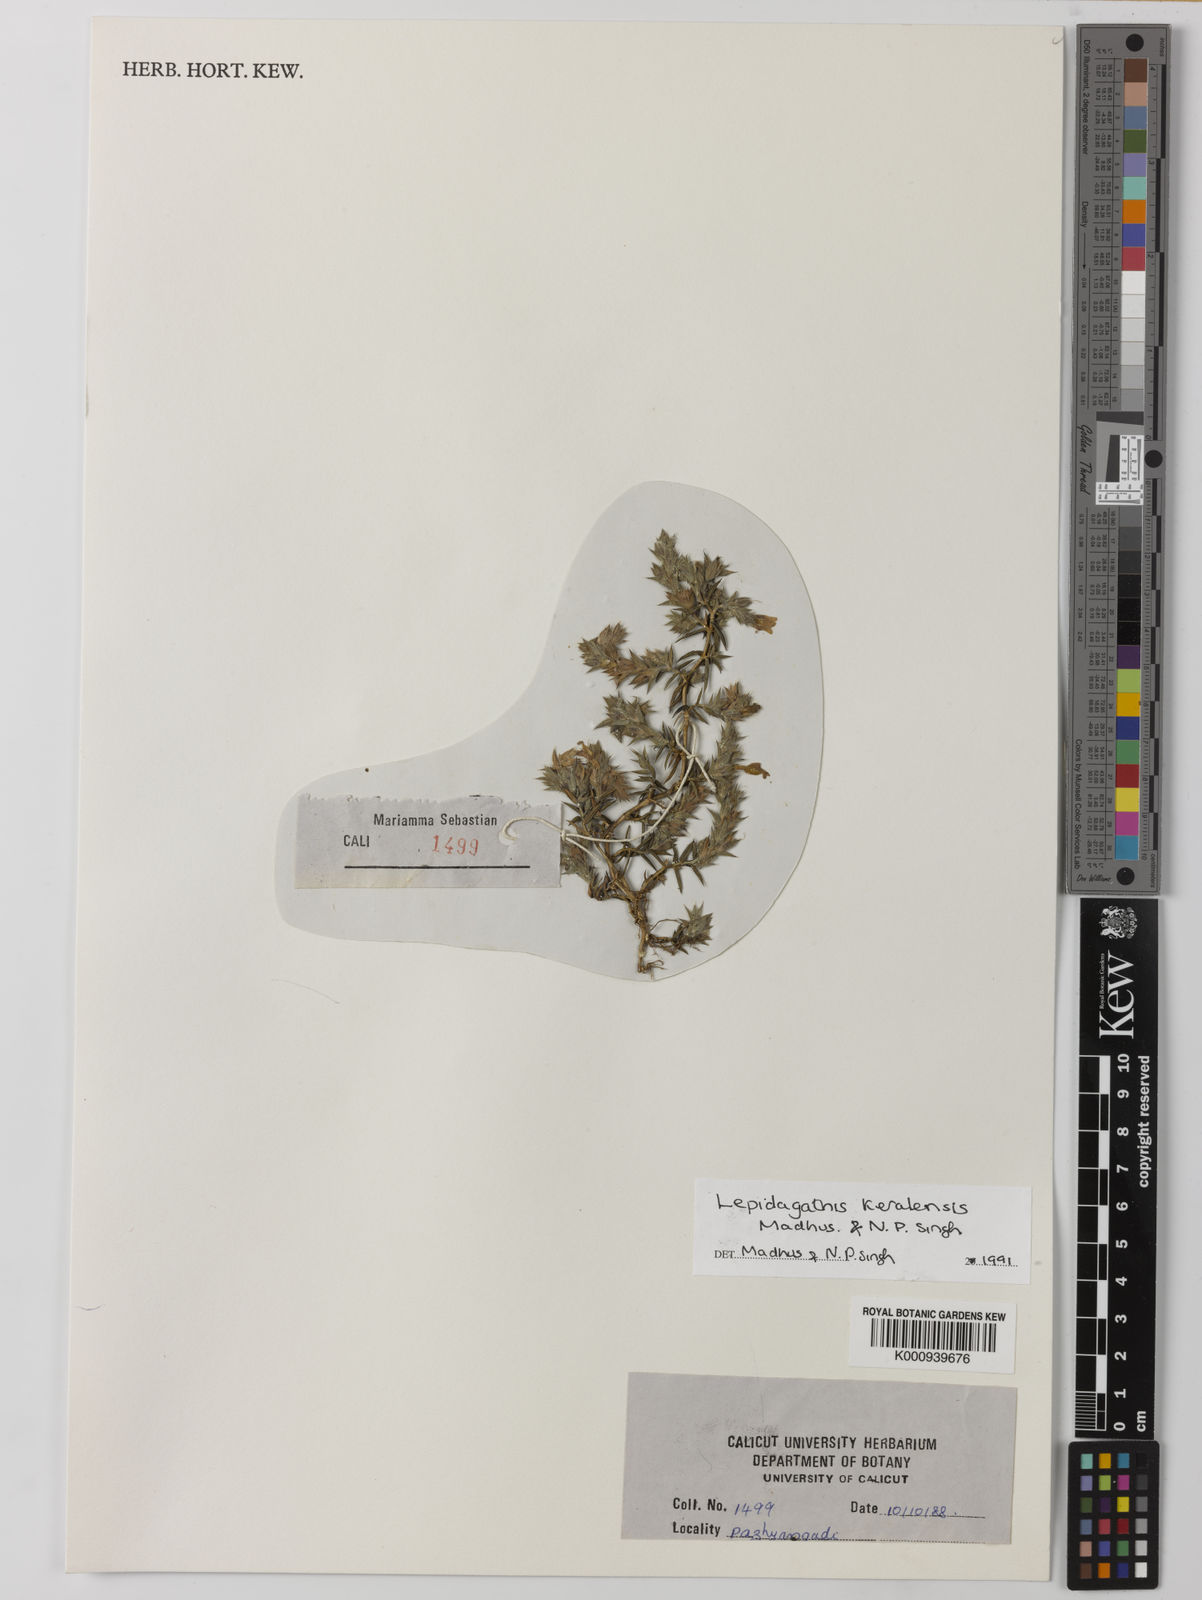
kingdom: Plantae
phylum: Tracheophyta
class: Magnoliopsida
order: Lamiales
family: Acanthaceae
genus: Lepidagathis
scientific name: Lepidagathis keralensis
